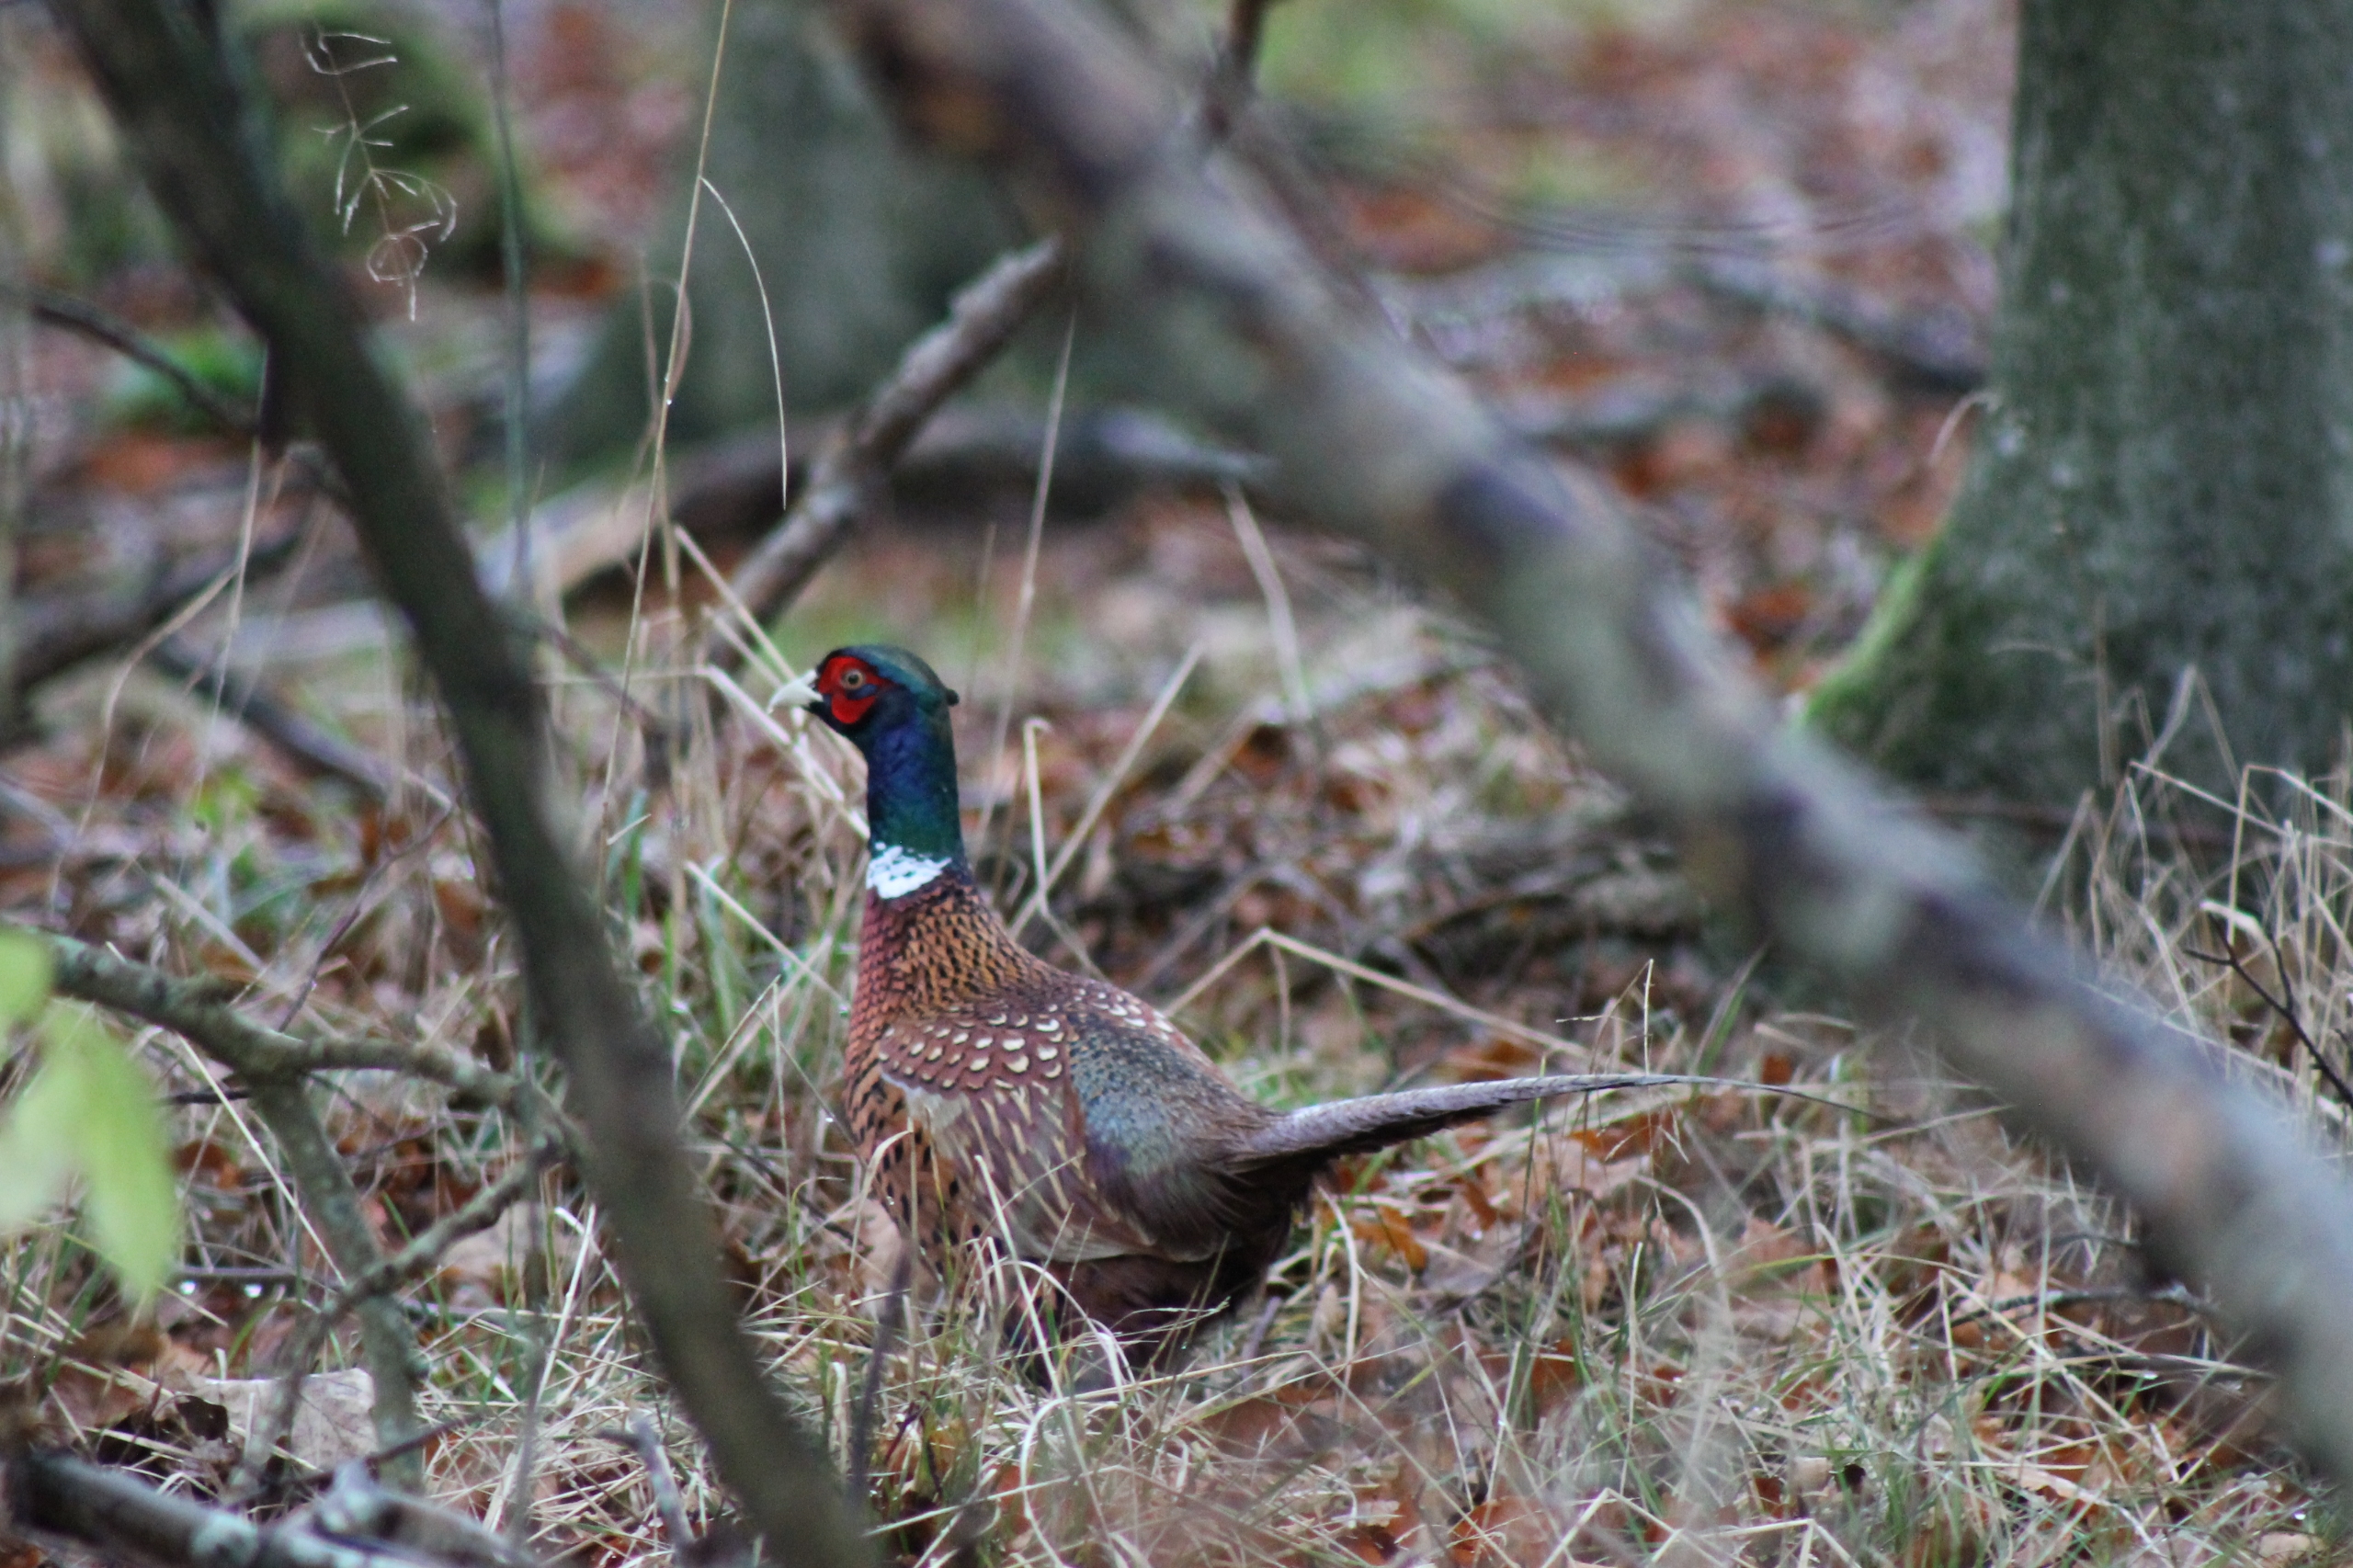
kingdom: Animalia
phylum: Chordata
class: Aves
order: Galliformes
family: Phasianidae
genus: Phasianus
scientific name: Phasianus colchicus
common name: Fasan
